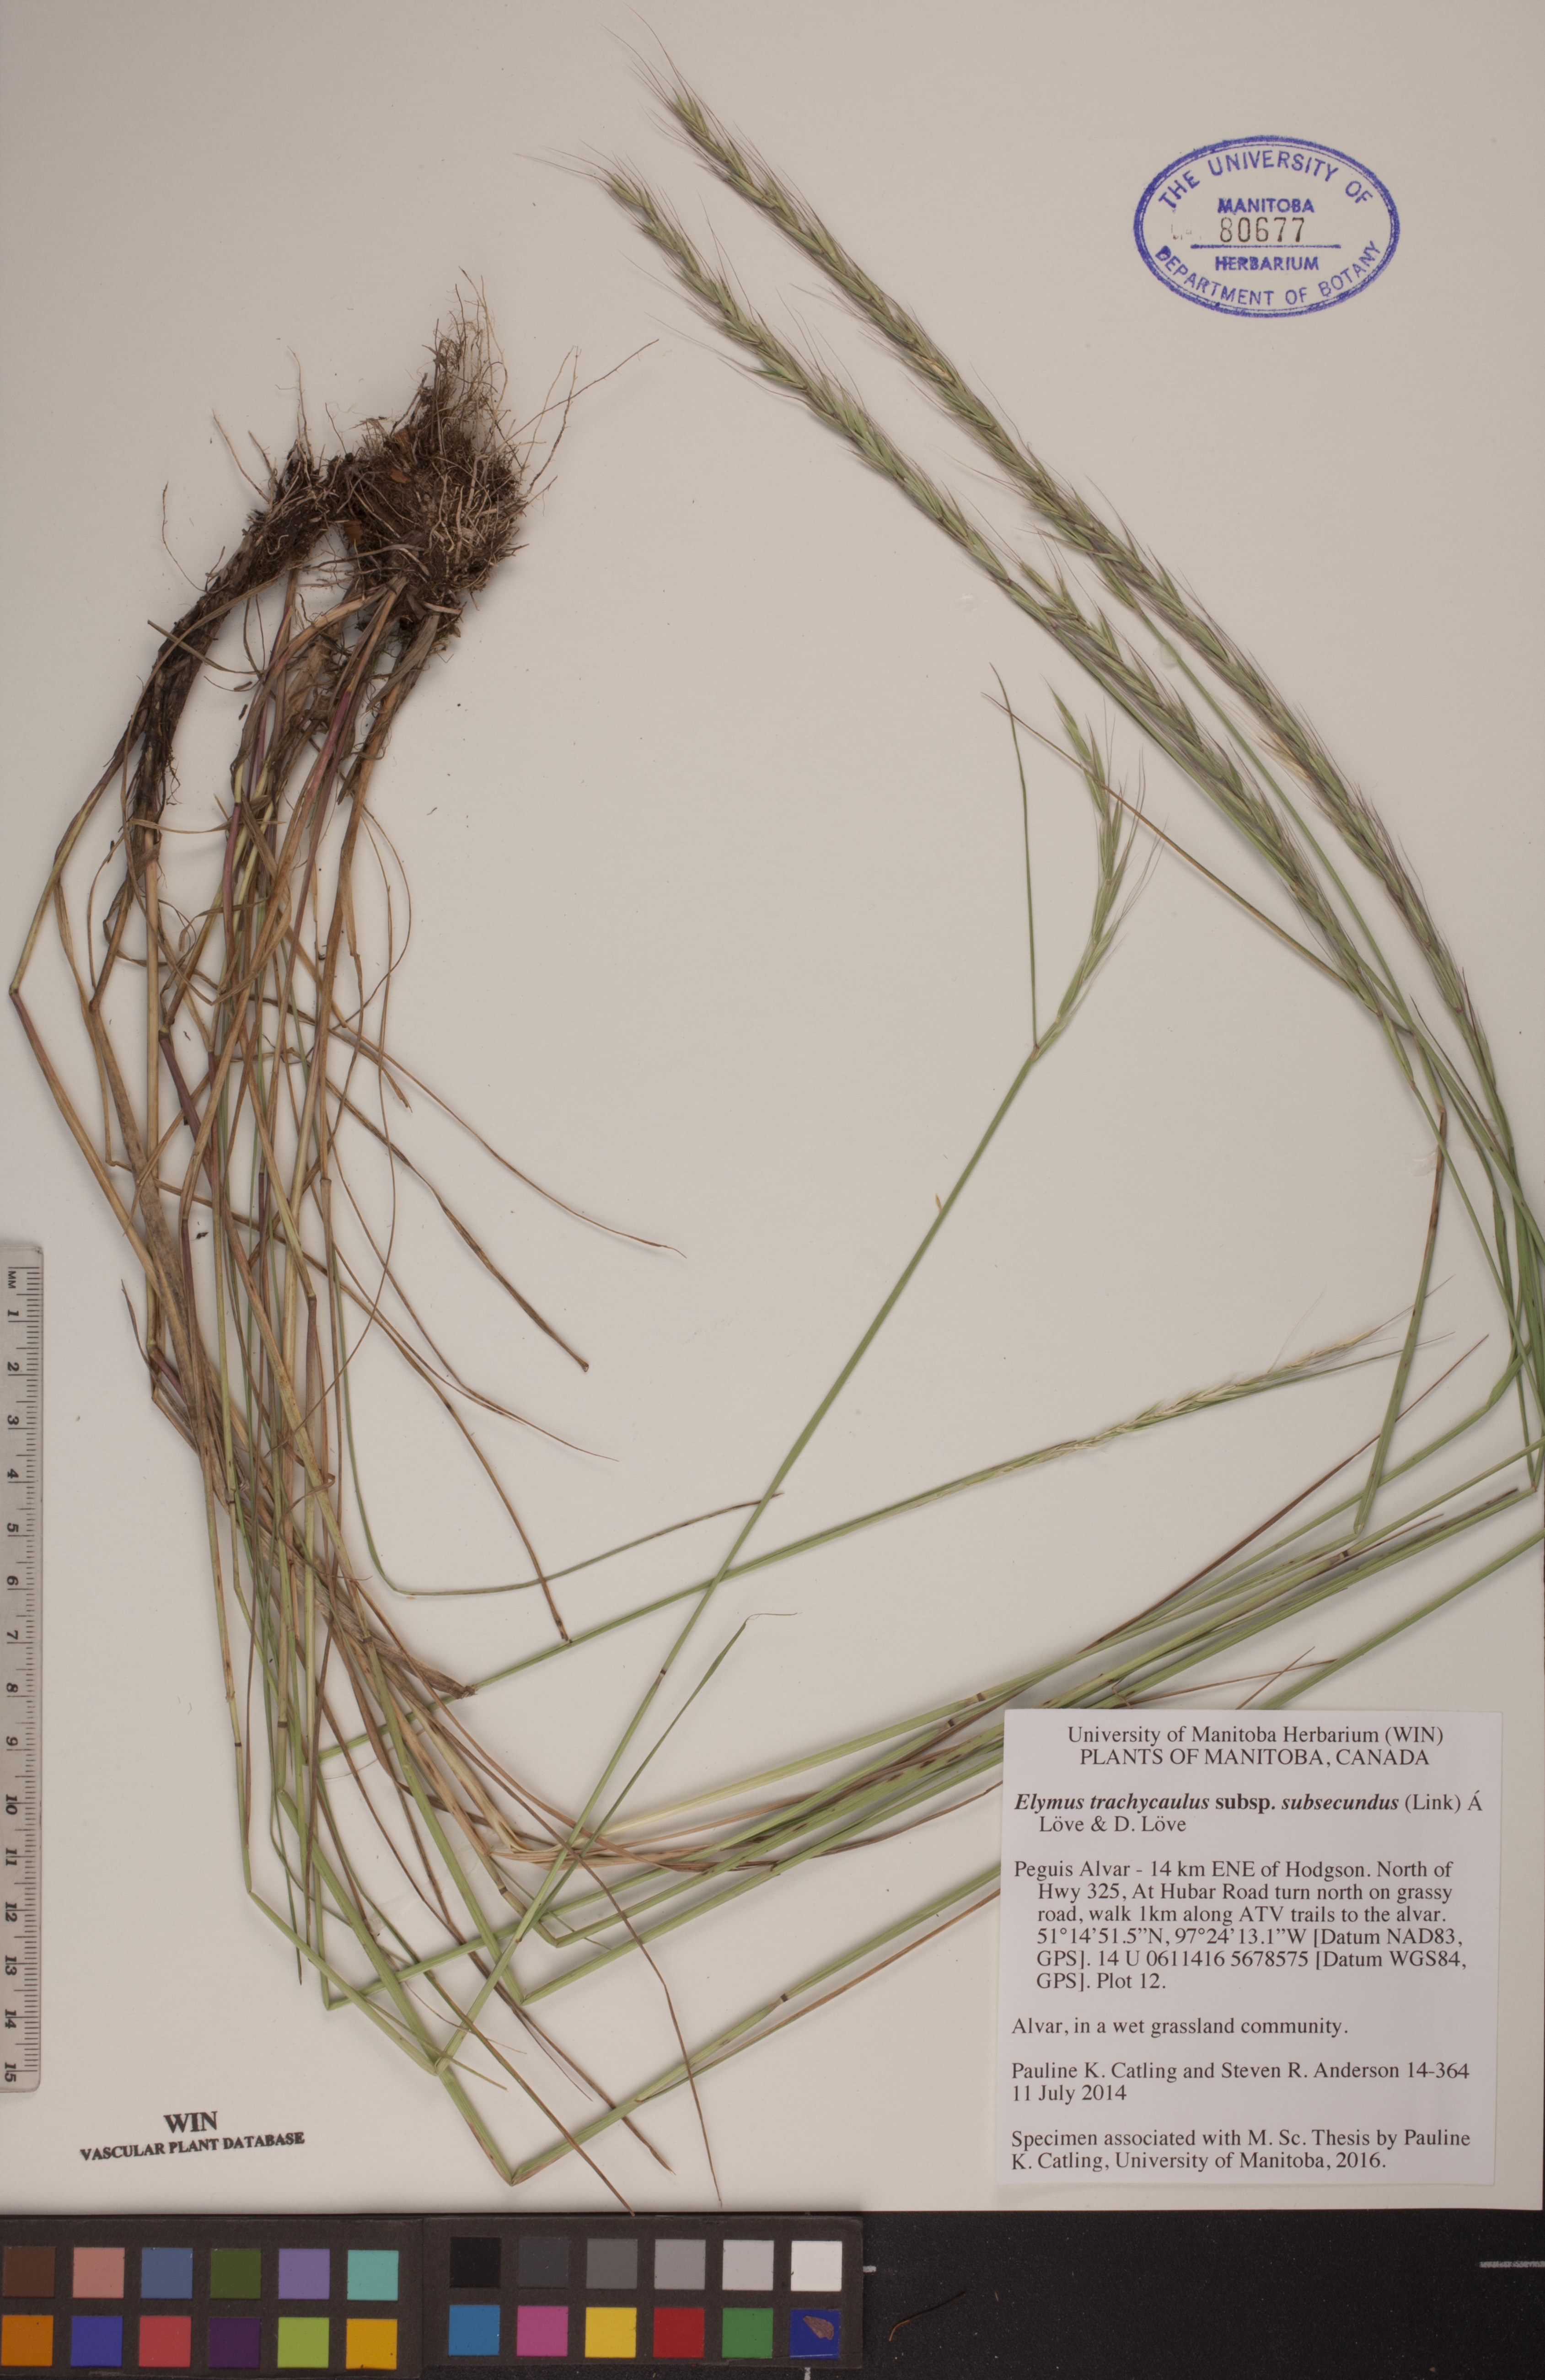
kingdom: Plantae
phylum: Tracheophyta
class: Liliopsida
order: Poales
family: Poaceae
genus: Elymus
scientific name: Elymus violaceus
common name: Arctic wheatgrass
